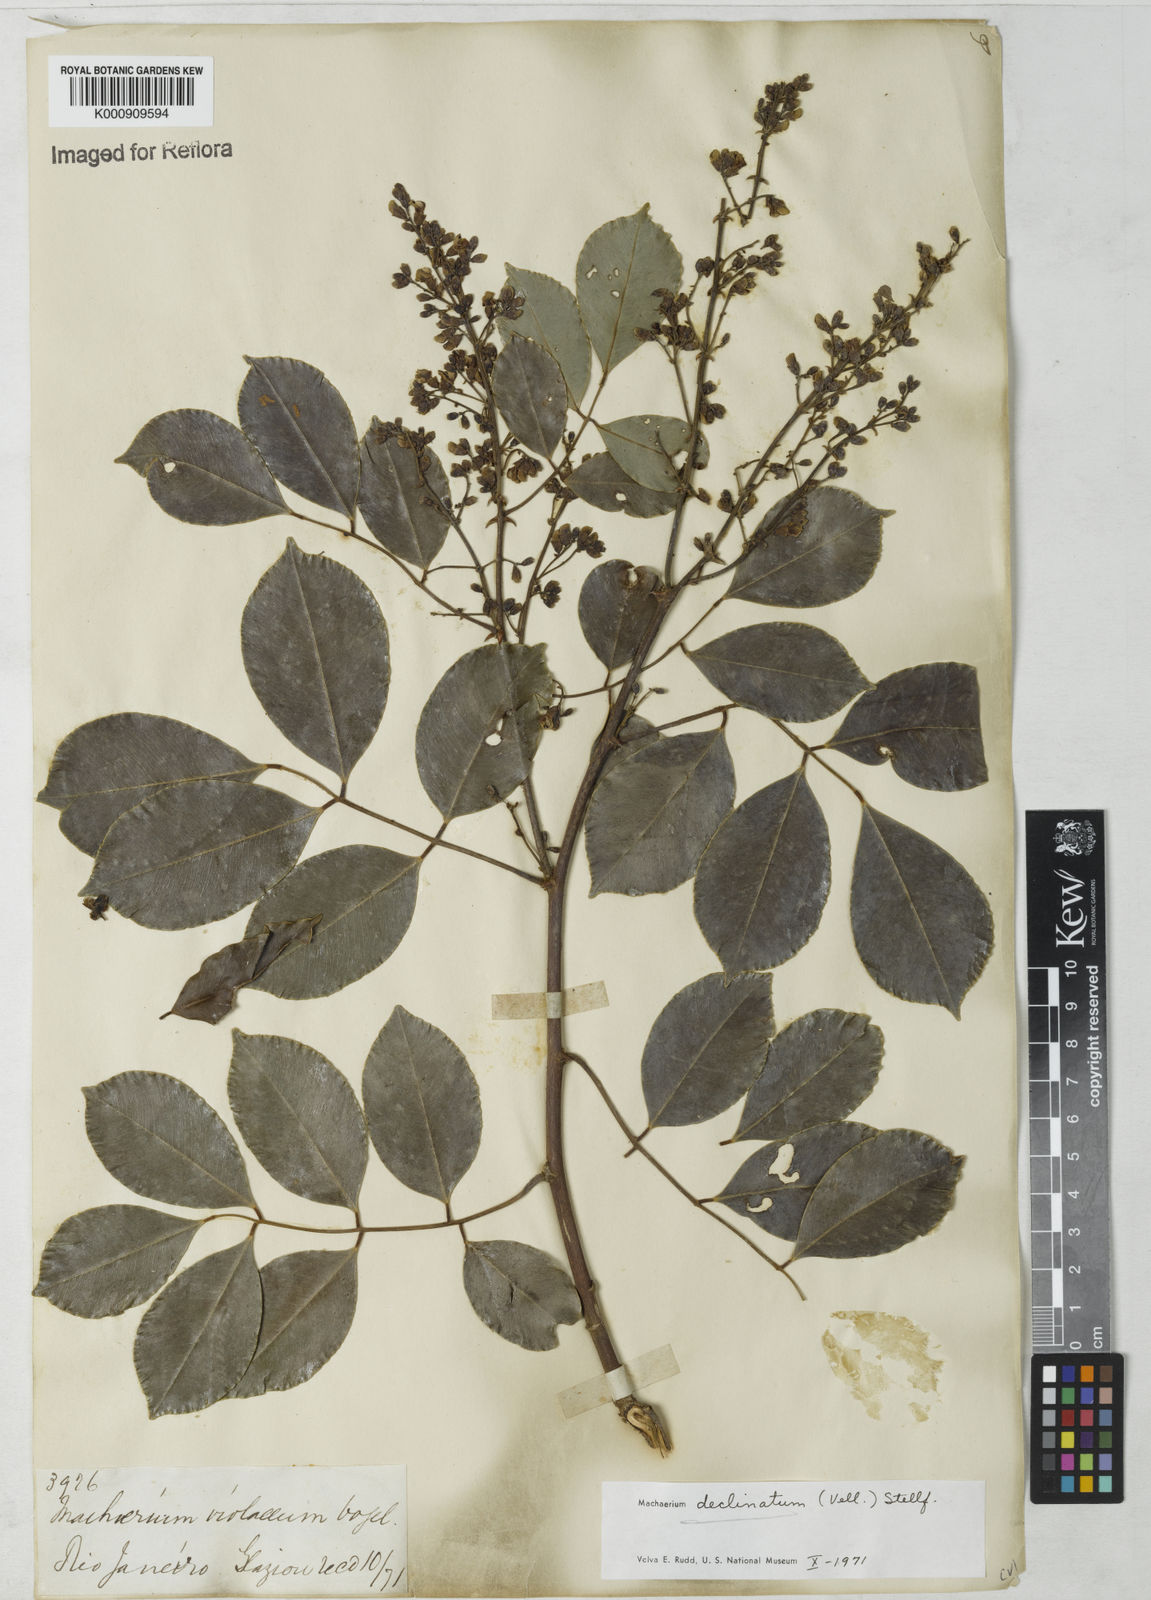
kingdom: Plantae
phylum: Tracheophyta
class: Magnoliopsida
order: Fabales
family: Fabaceae
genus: Machaerium
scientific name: Machaerium declinatum
